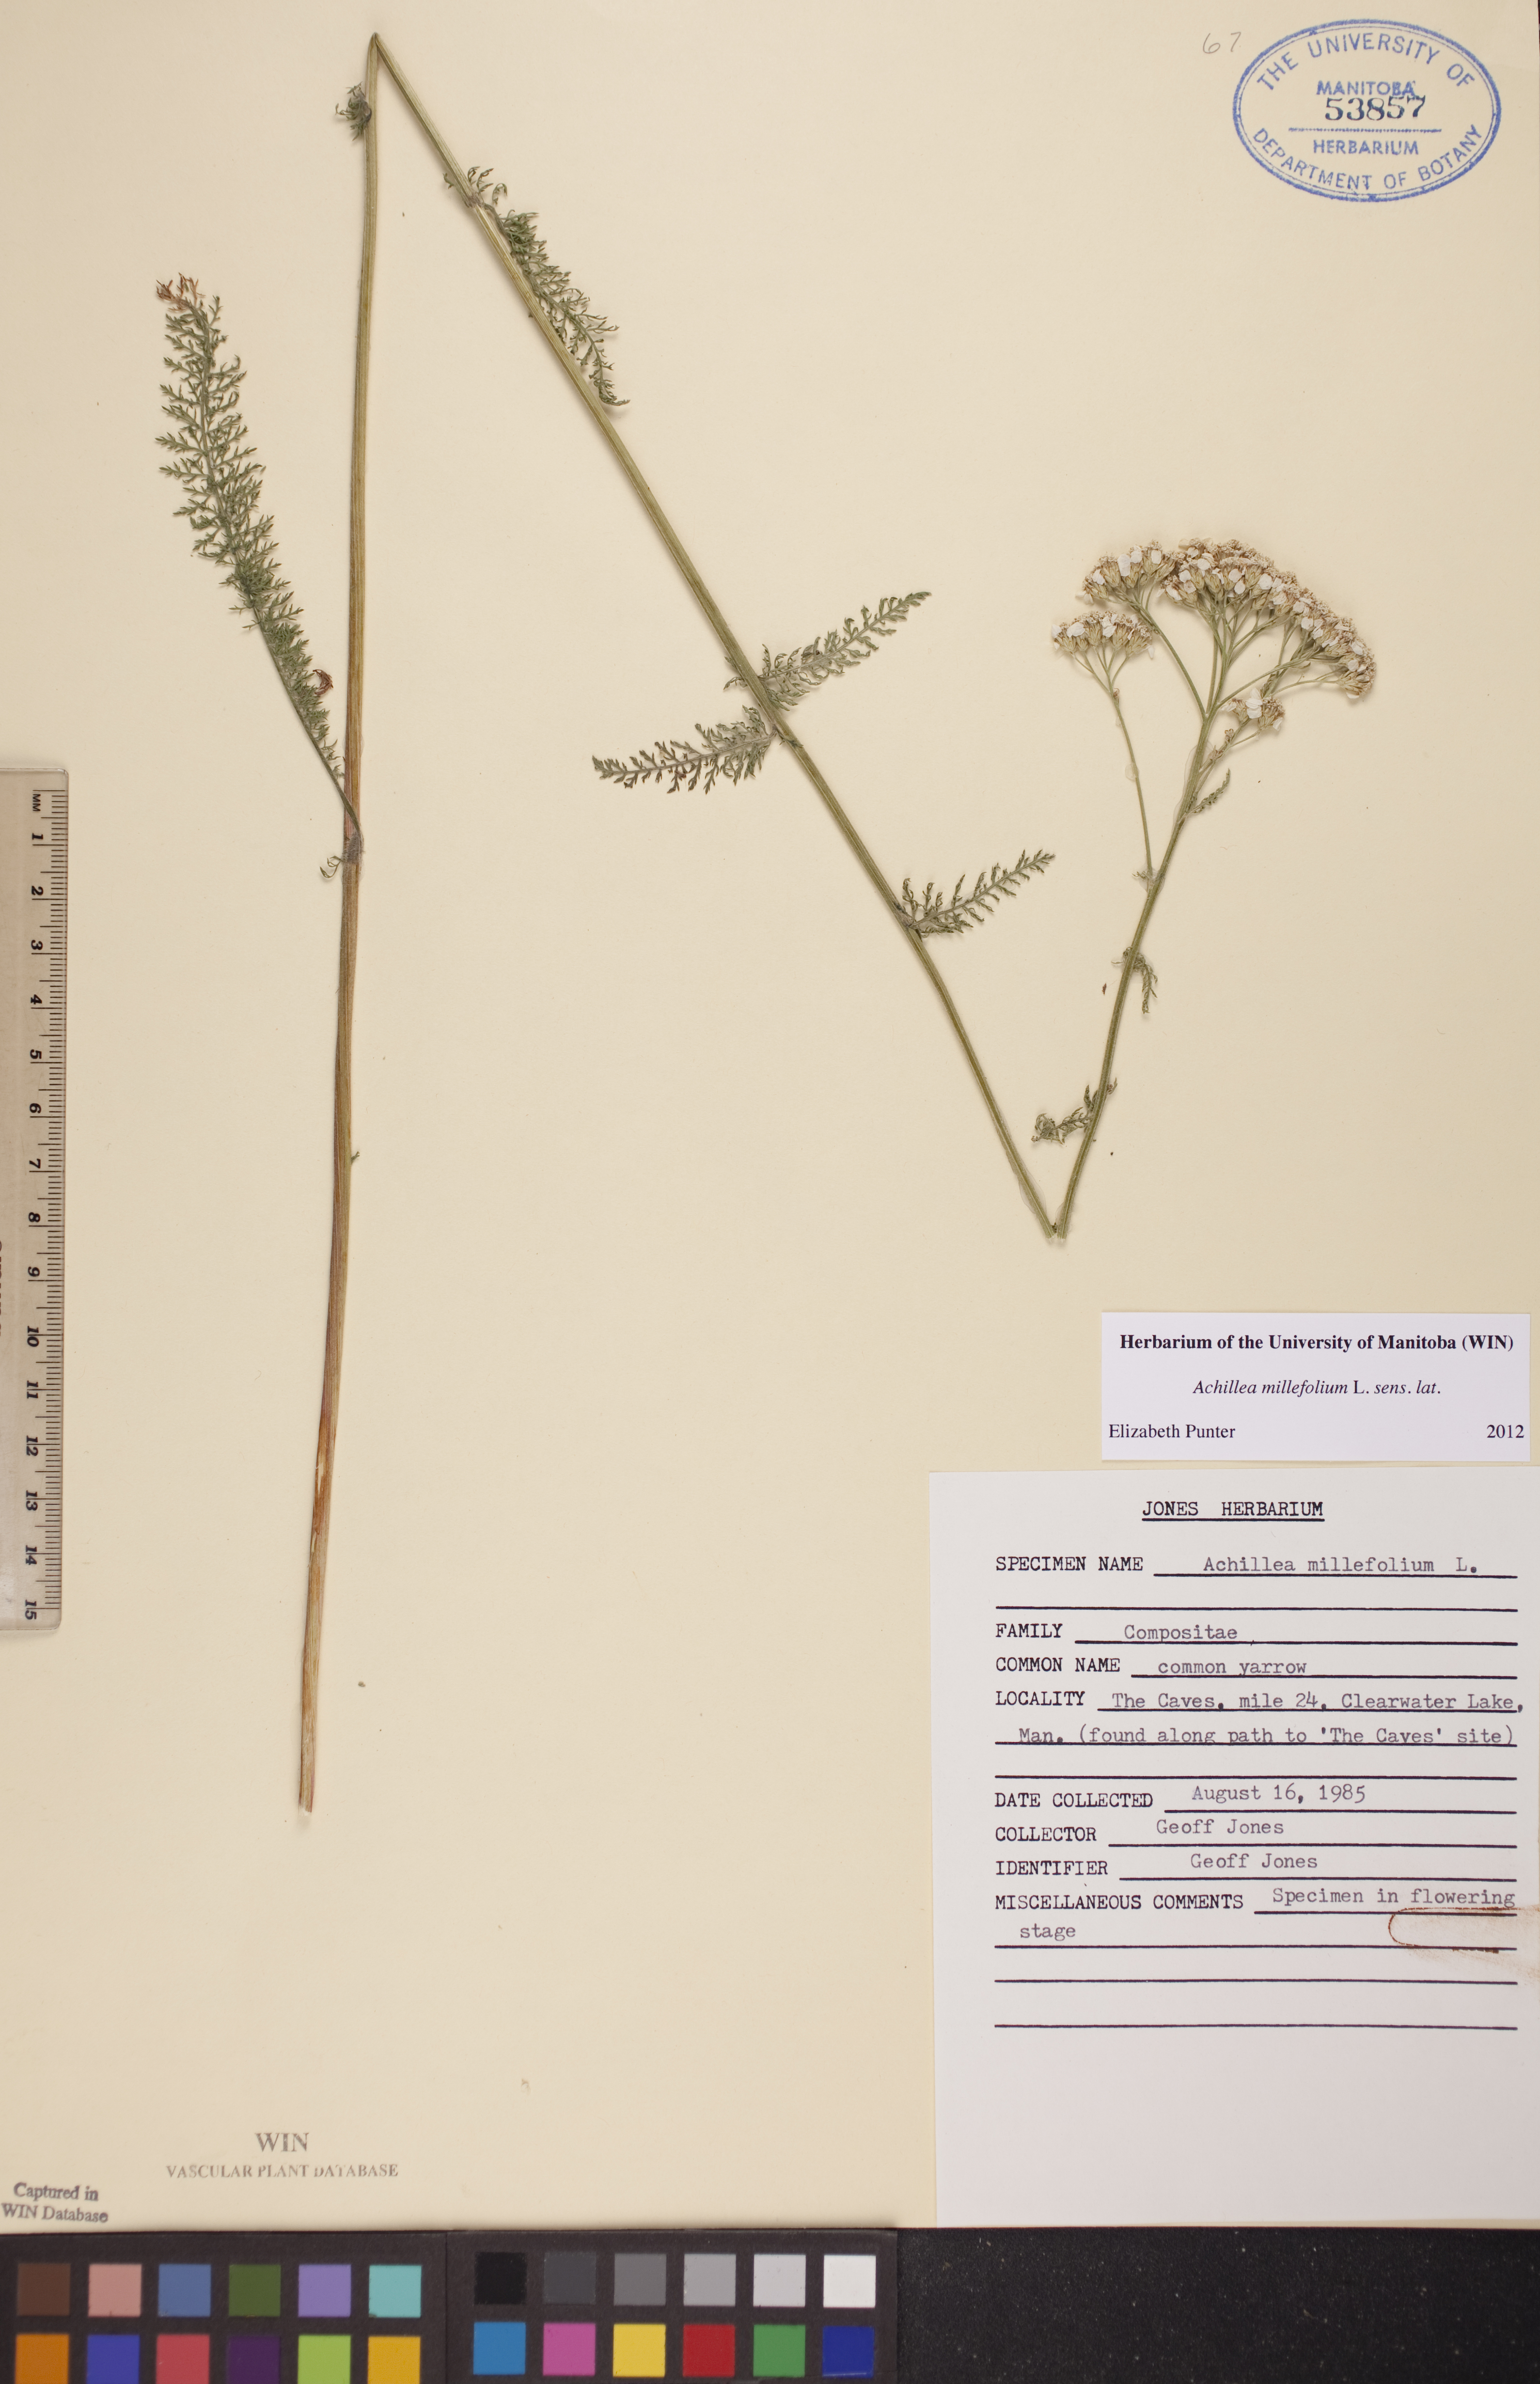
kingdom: Plantae
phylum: Tracheophyta
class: Magnoliopsida
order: Asterales
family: Asteraceae
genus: Achillea
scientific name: Achillea millefolium
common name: Yarrow
